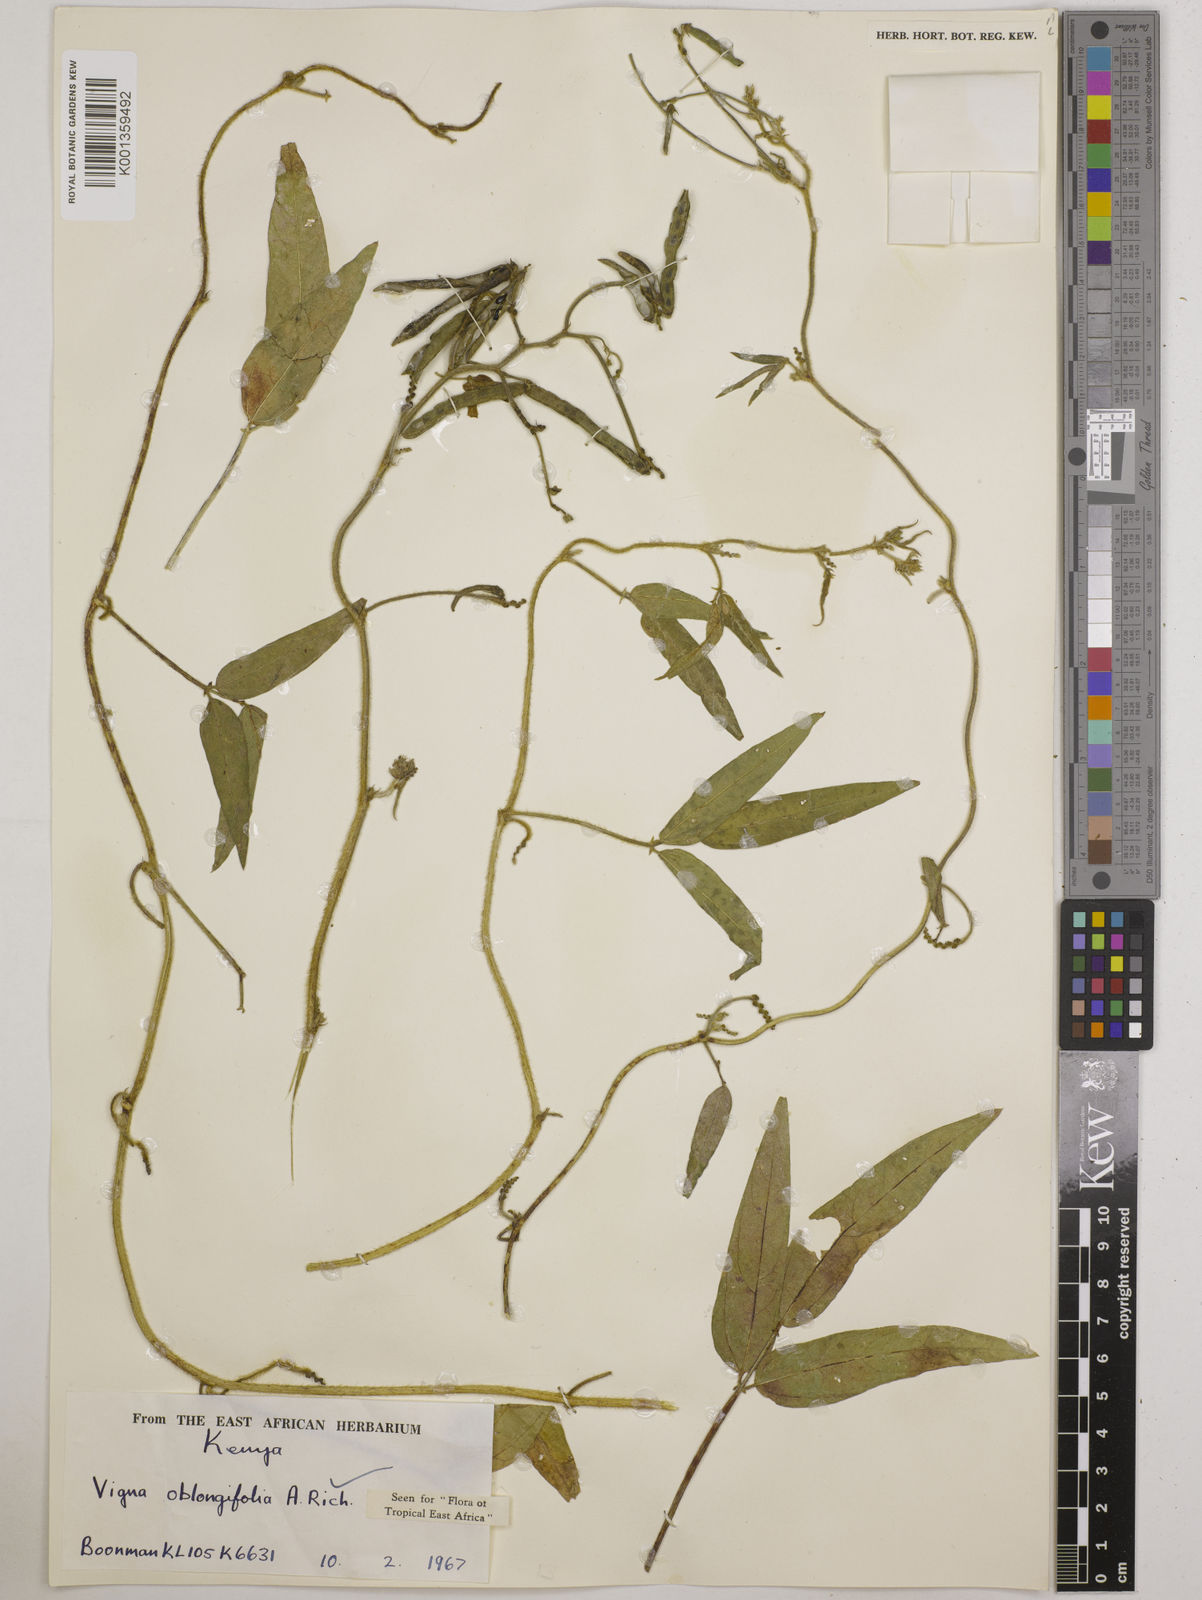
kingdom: Plantae
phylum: Tracheophyta
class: Magnoliopsida
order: Fabales
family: Fabaceae
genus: Vigna
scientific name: Vigna oblongifolia
